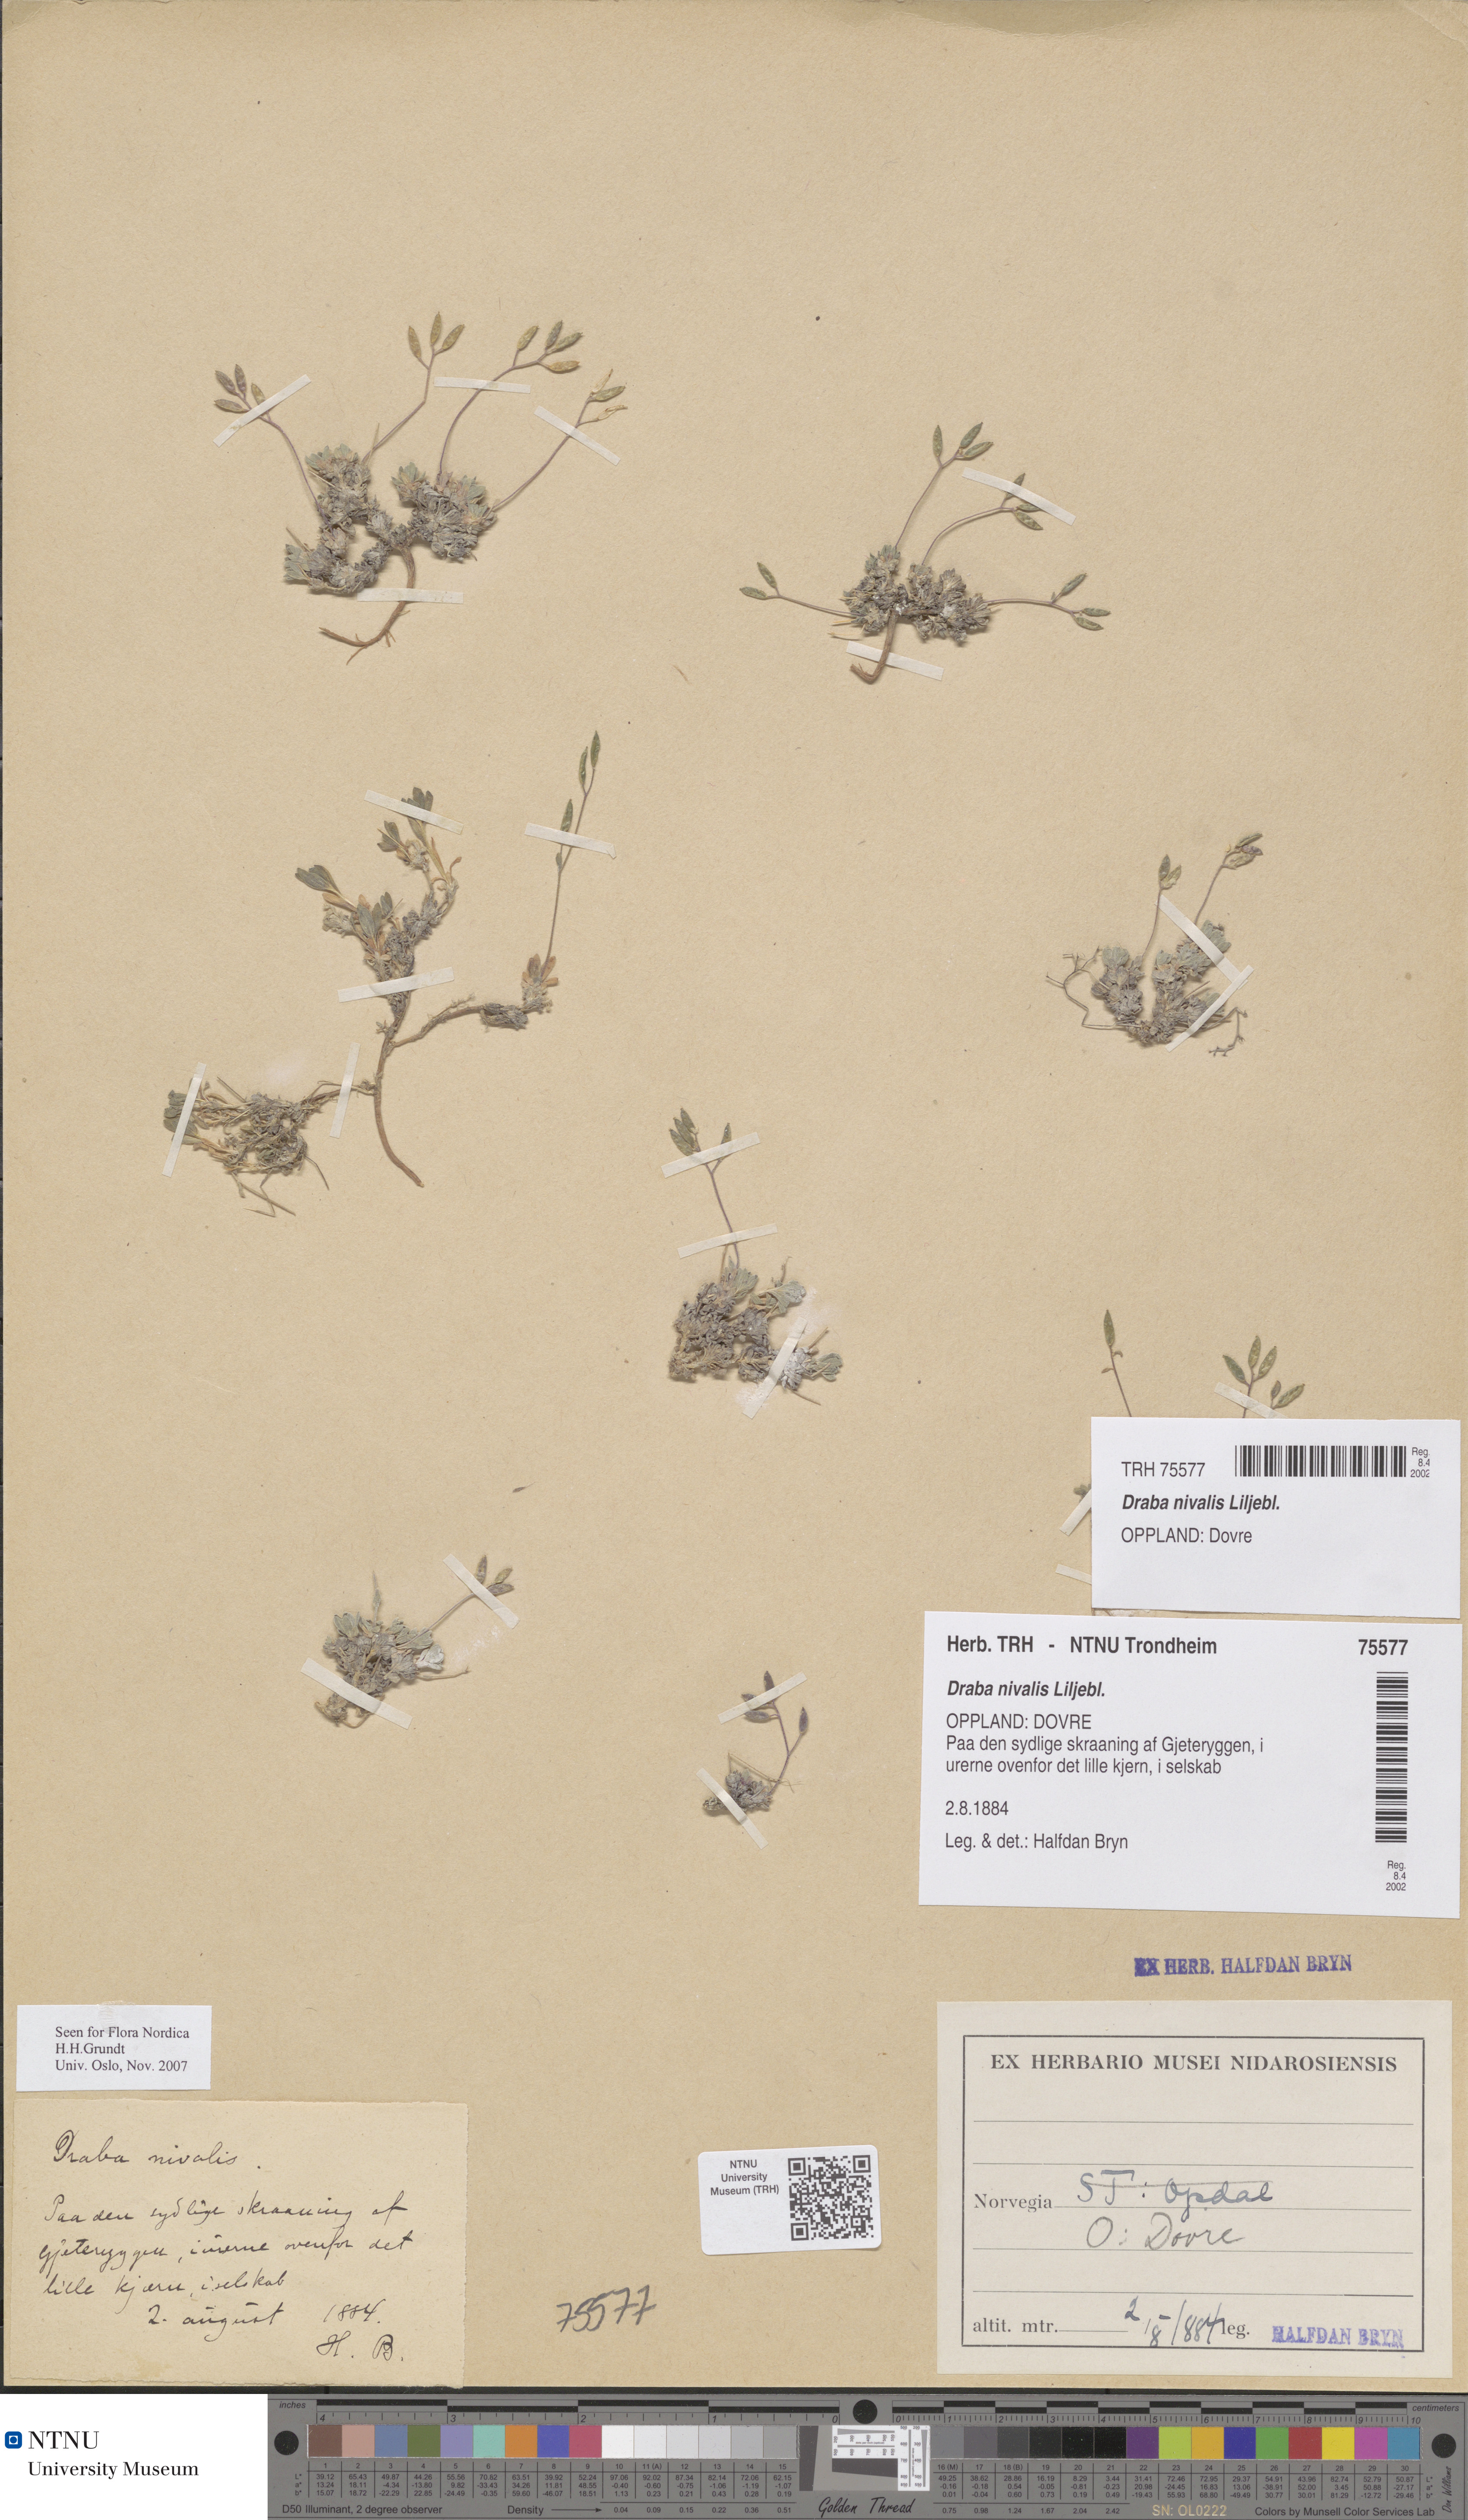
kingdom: Plantae
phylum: Tracheophyta
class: Magnoliopsida
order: Brassicales
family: Brassicaceae
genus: Draba
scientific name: Draba nivalis
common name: Snow draba
